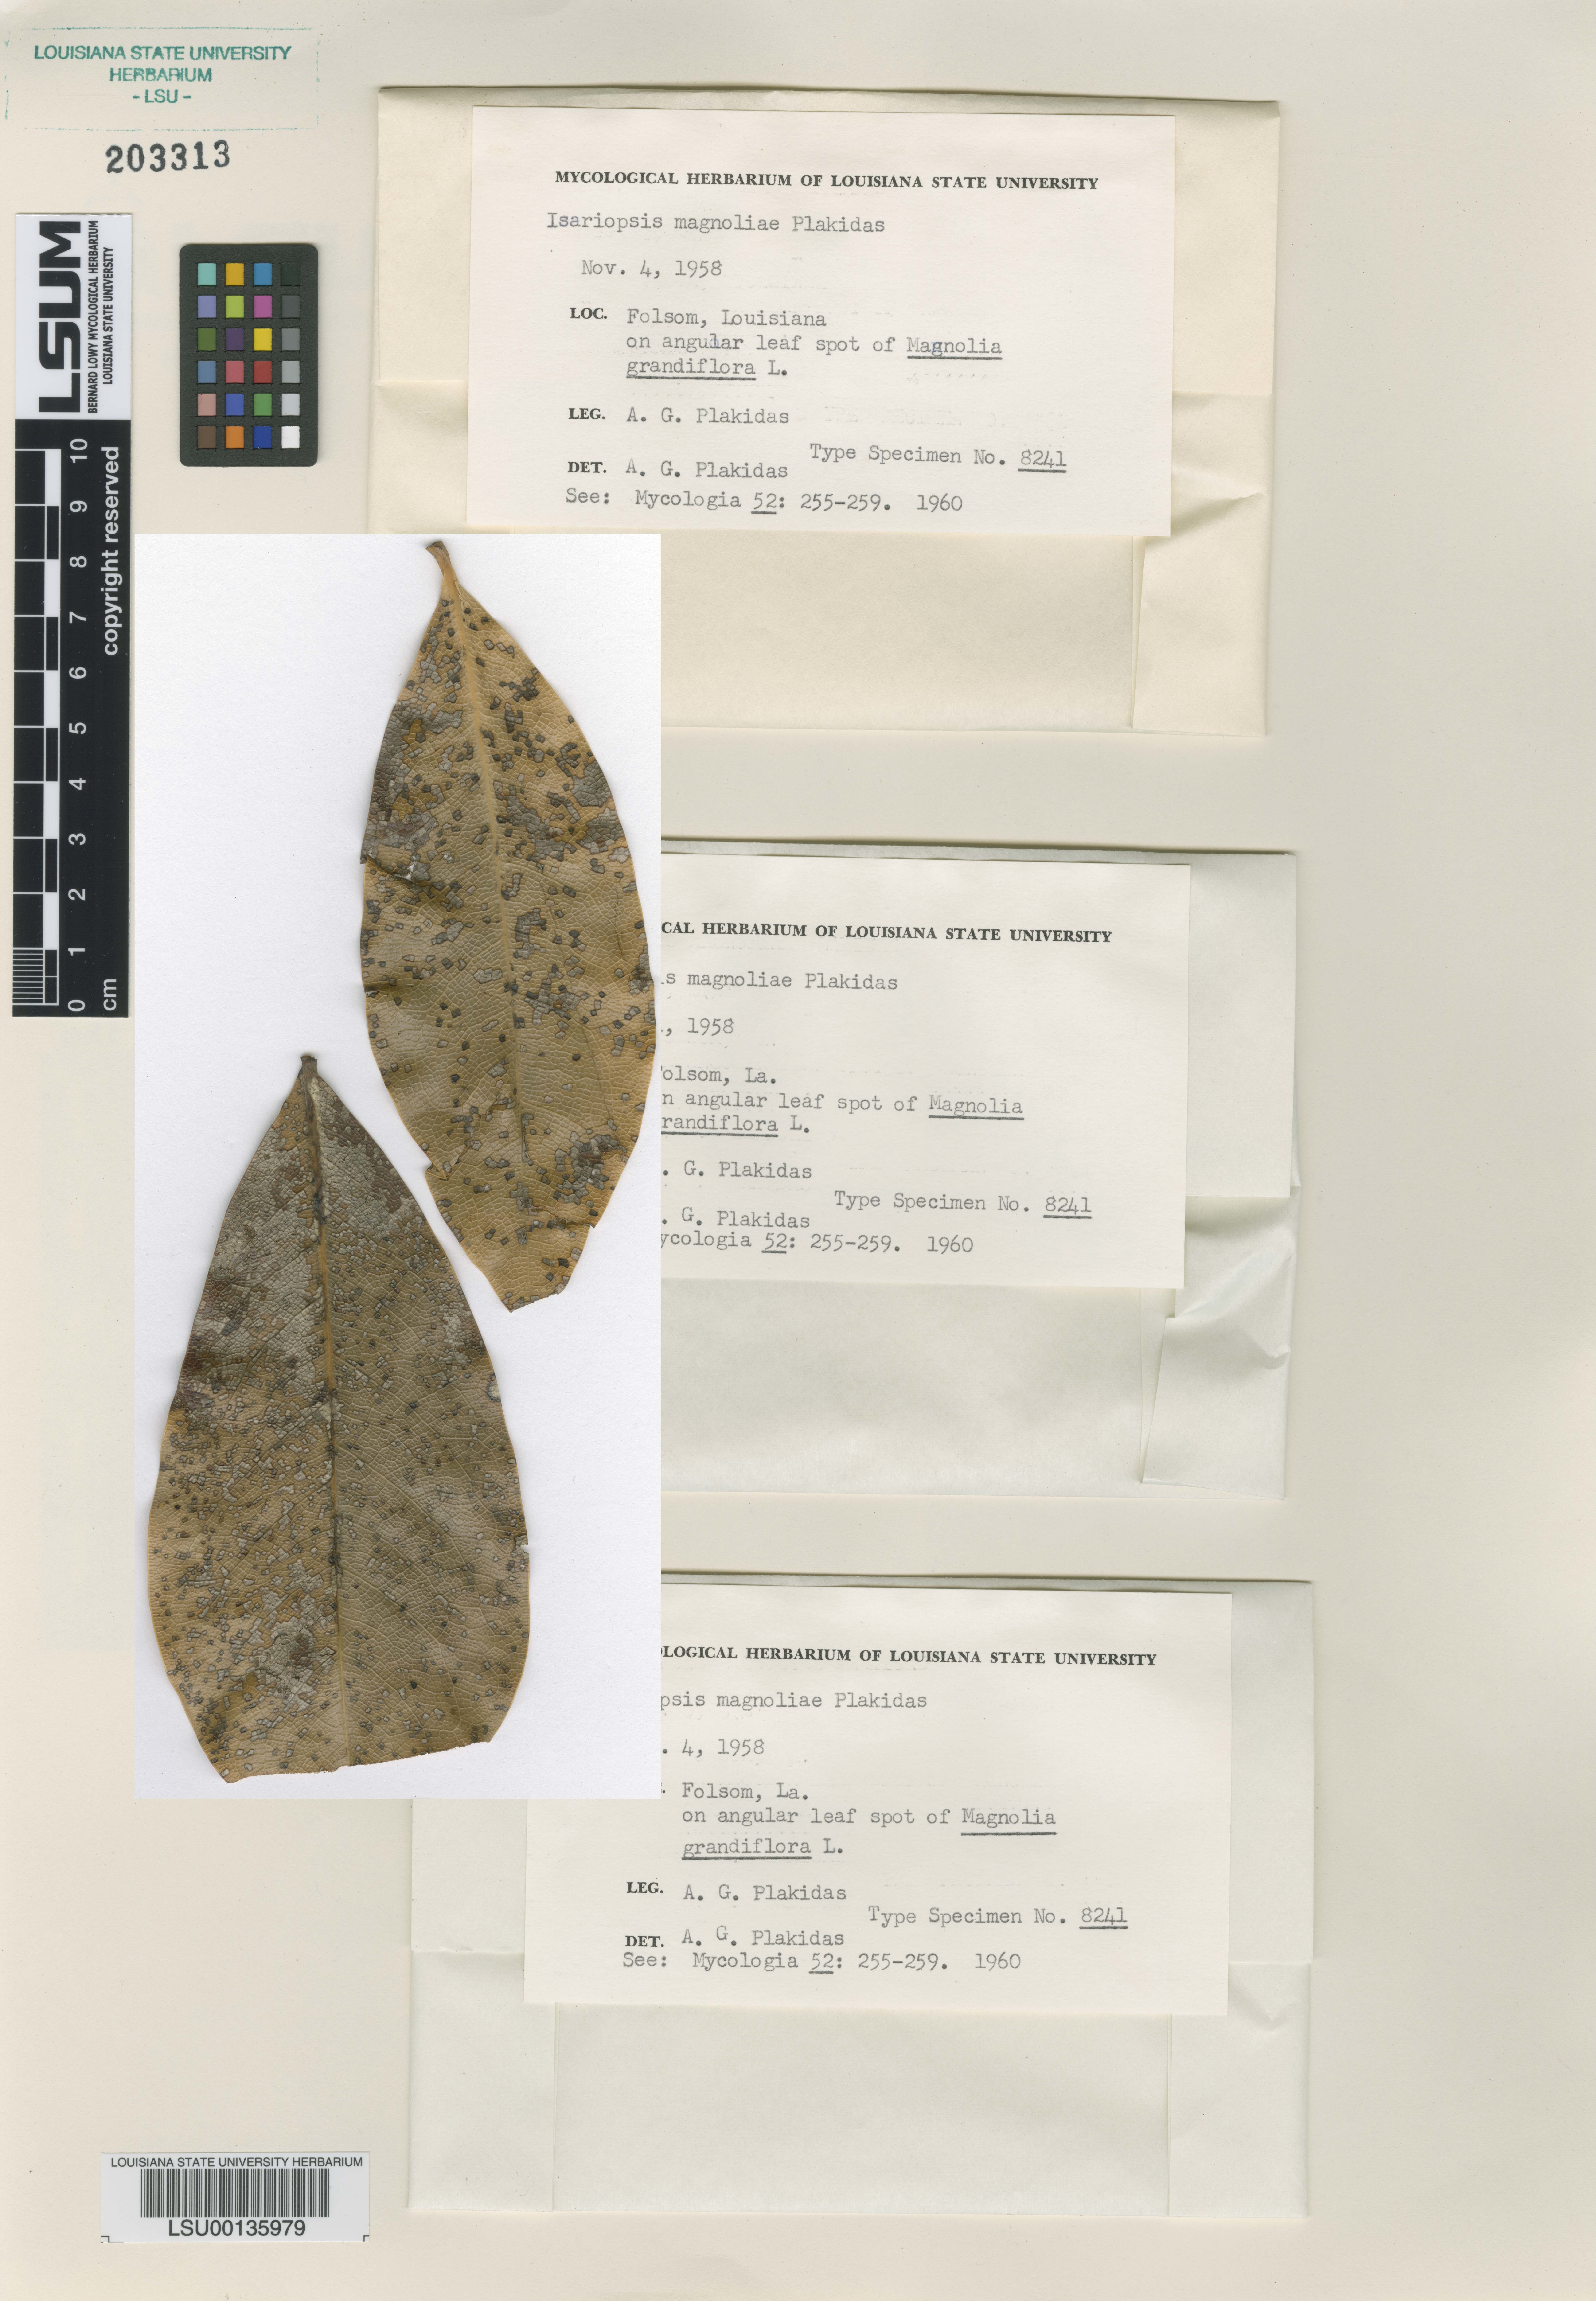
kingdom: Fungi
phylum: Ascomycota
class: Dothideomycetes
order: Mycosphaerellales
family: Mycosphaerellaceae
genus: Isariopsis
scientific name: Isariopsis
